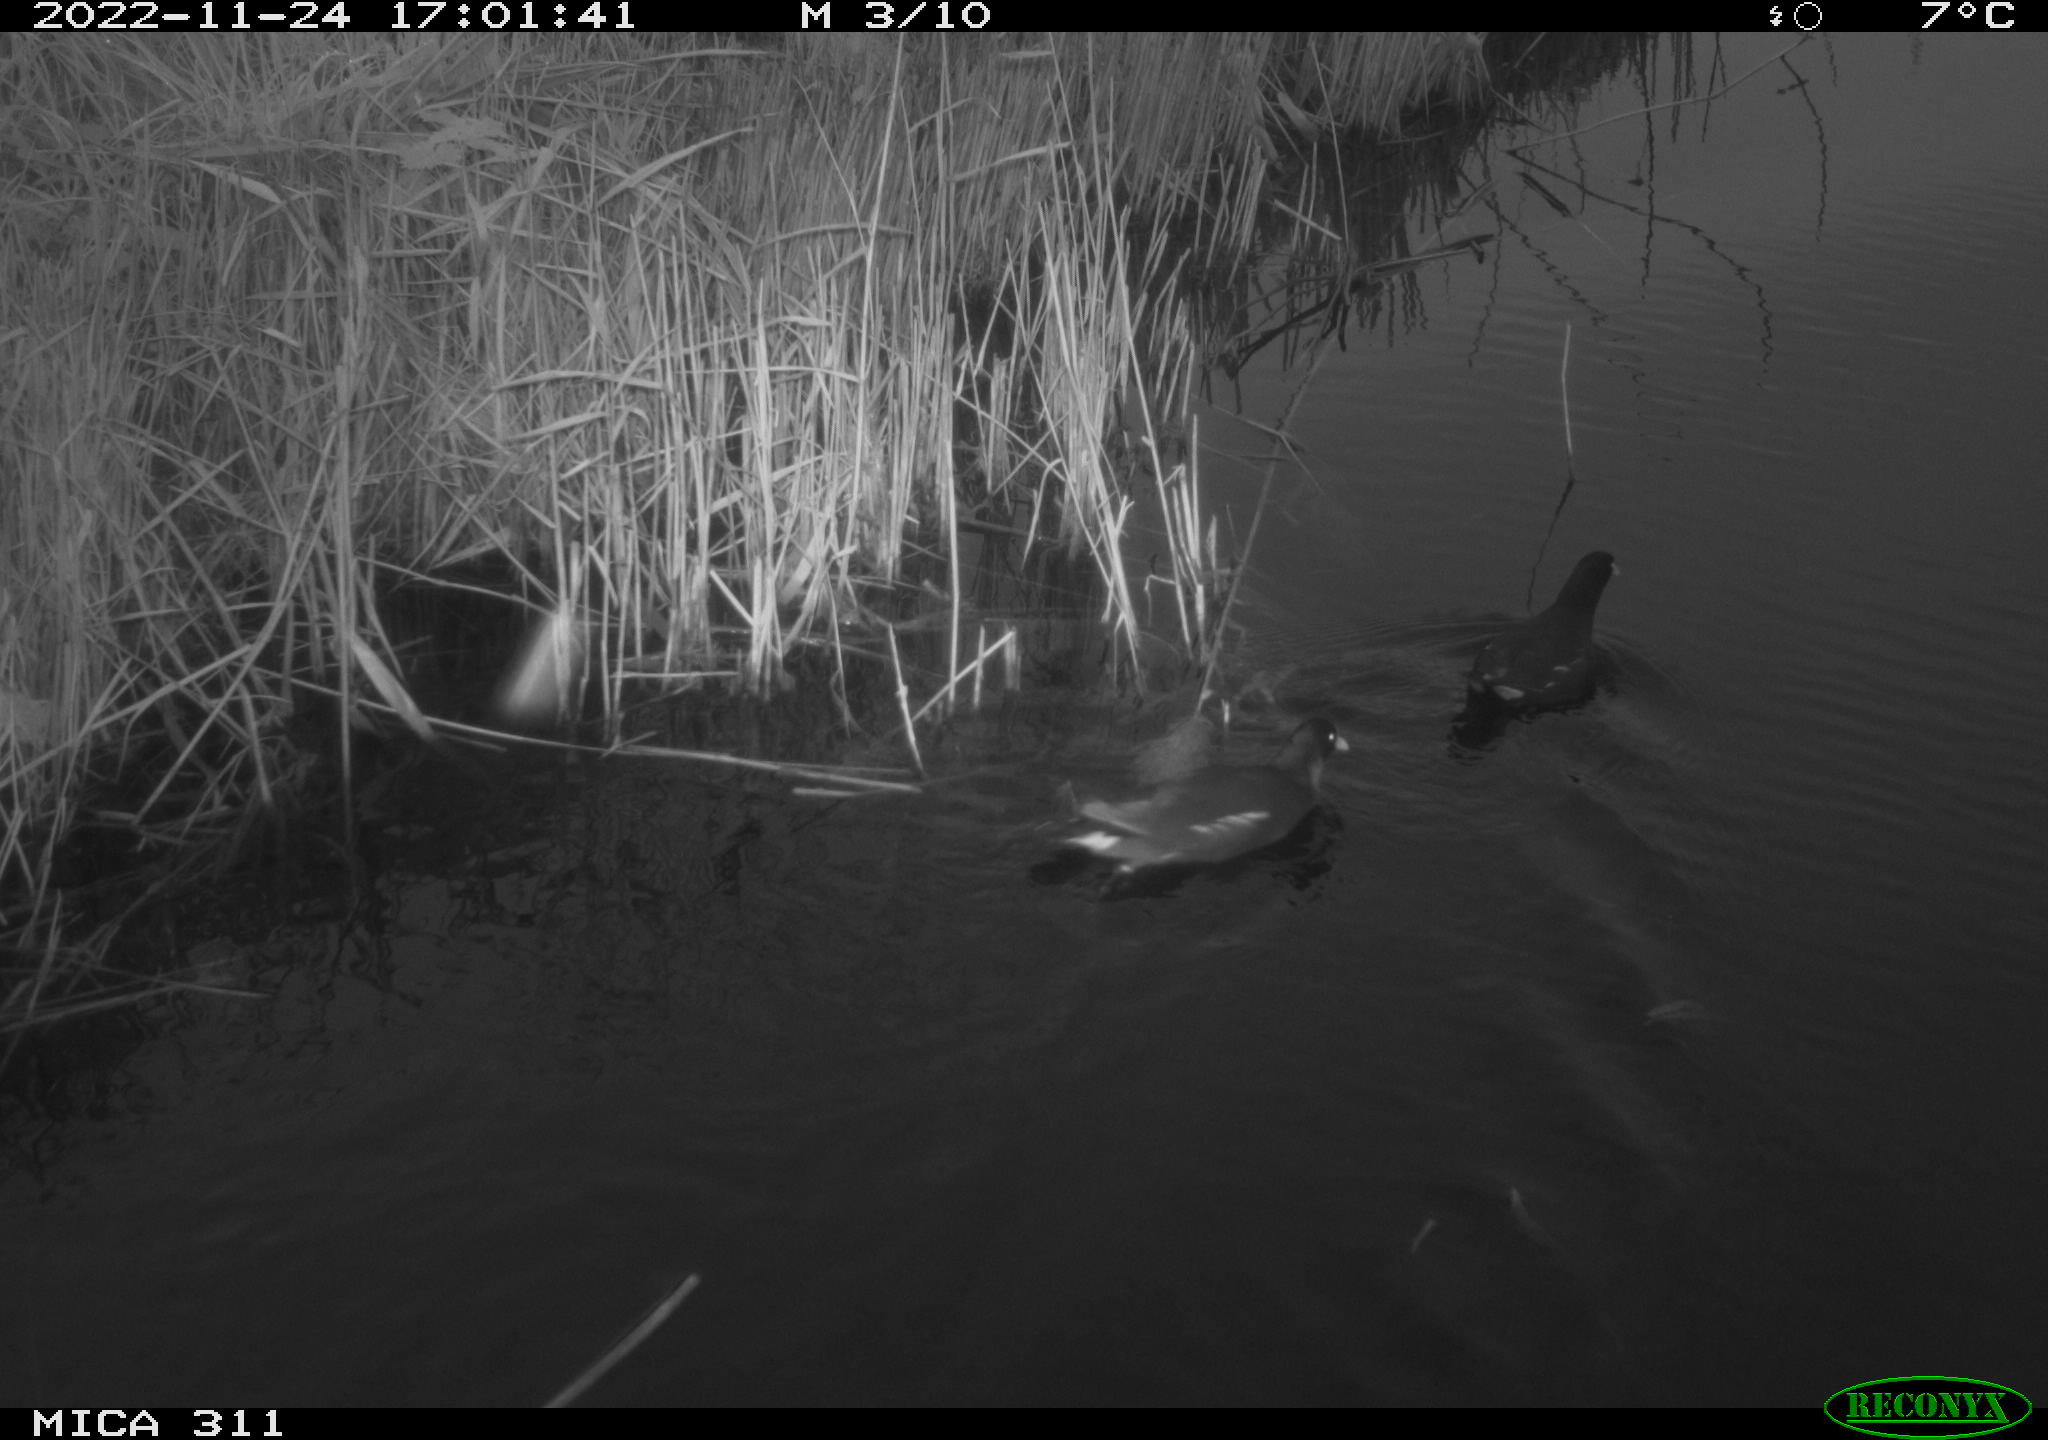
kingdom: Animalia
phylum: Chordata
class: Aves
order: Gruiformes
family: Rallidae
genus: Gallinula
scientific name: Gallinula chloropus
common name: Common moorhen
